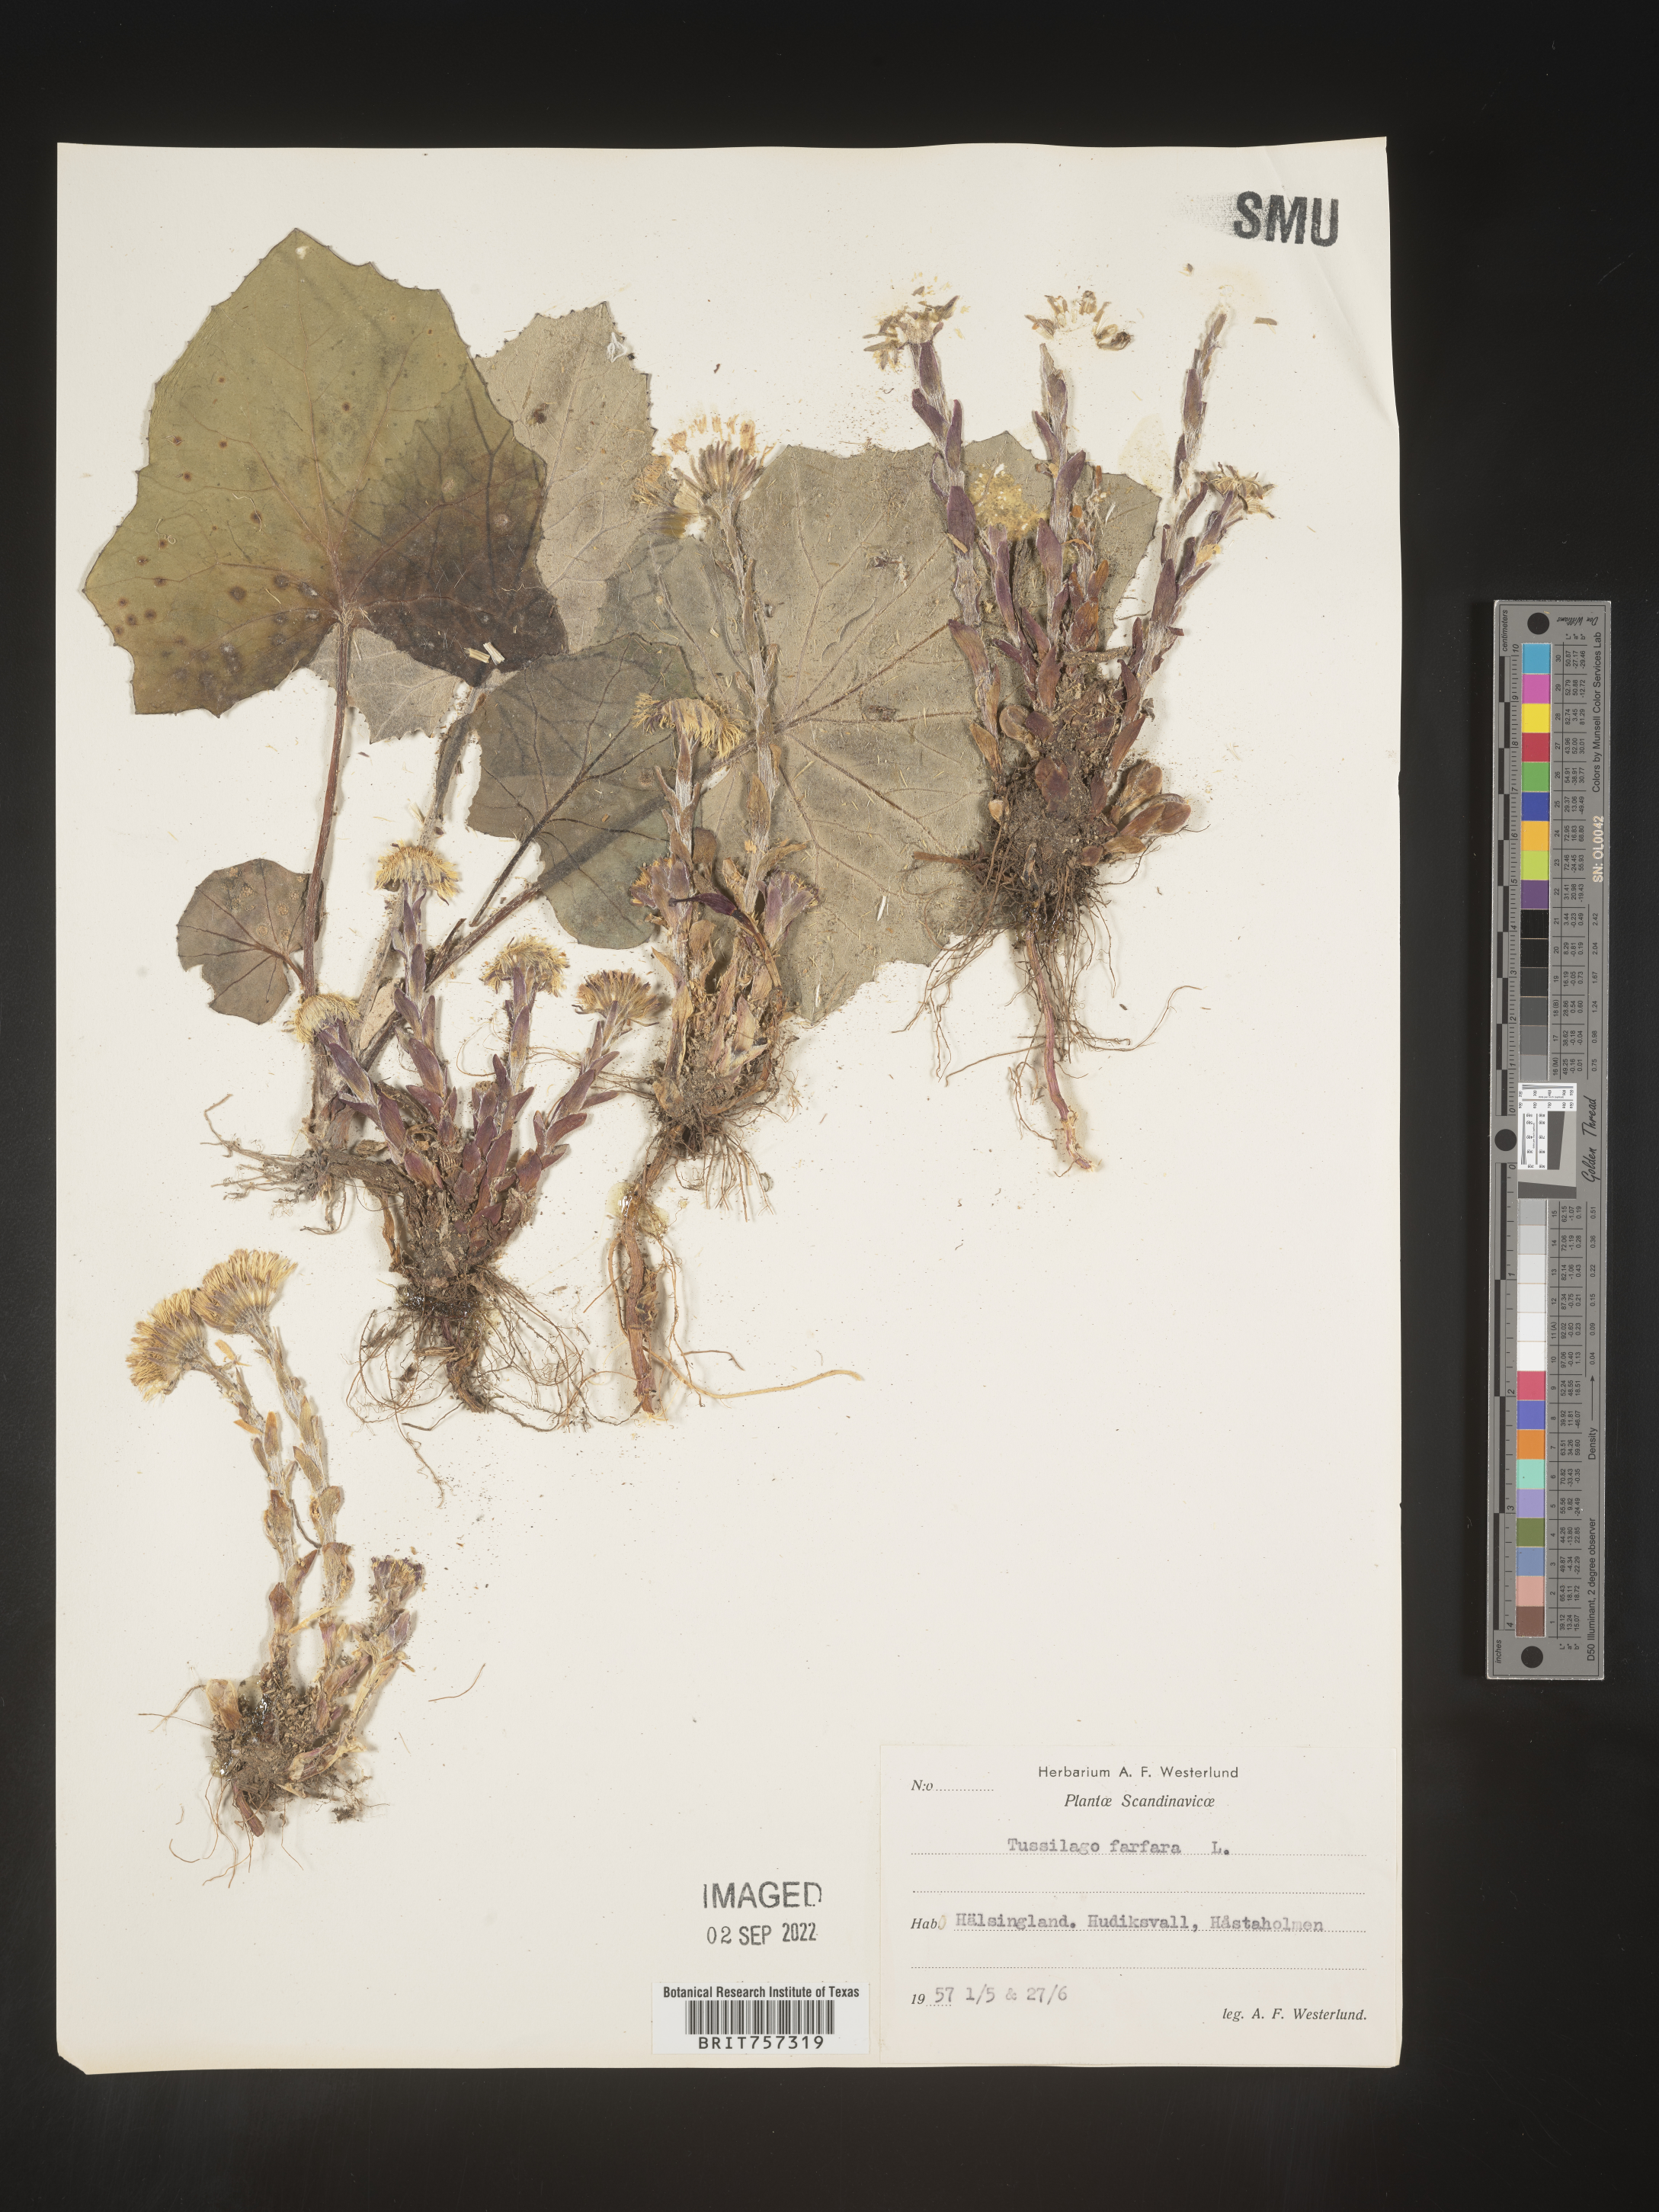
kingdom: Plantae
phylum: Tracheophyta
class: Magnoliopsida
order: Asterales
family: Asteraceae
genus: Tussilago
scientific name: Tussilago
